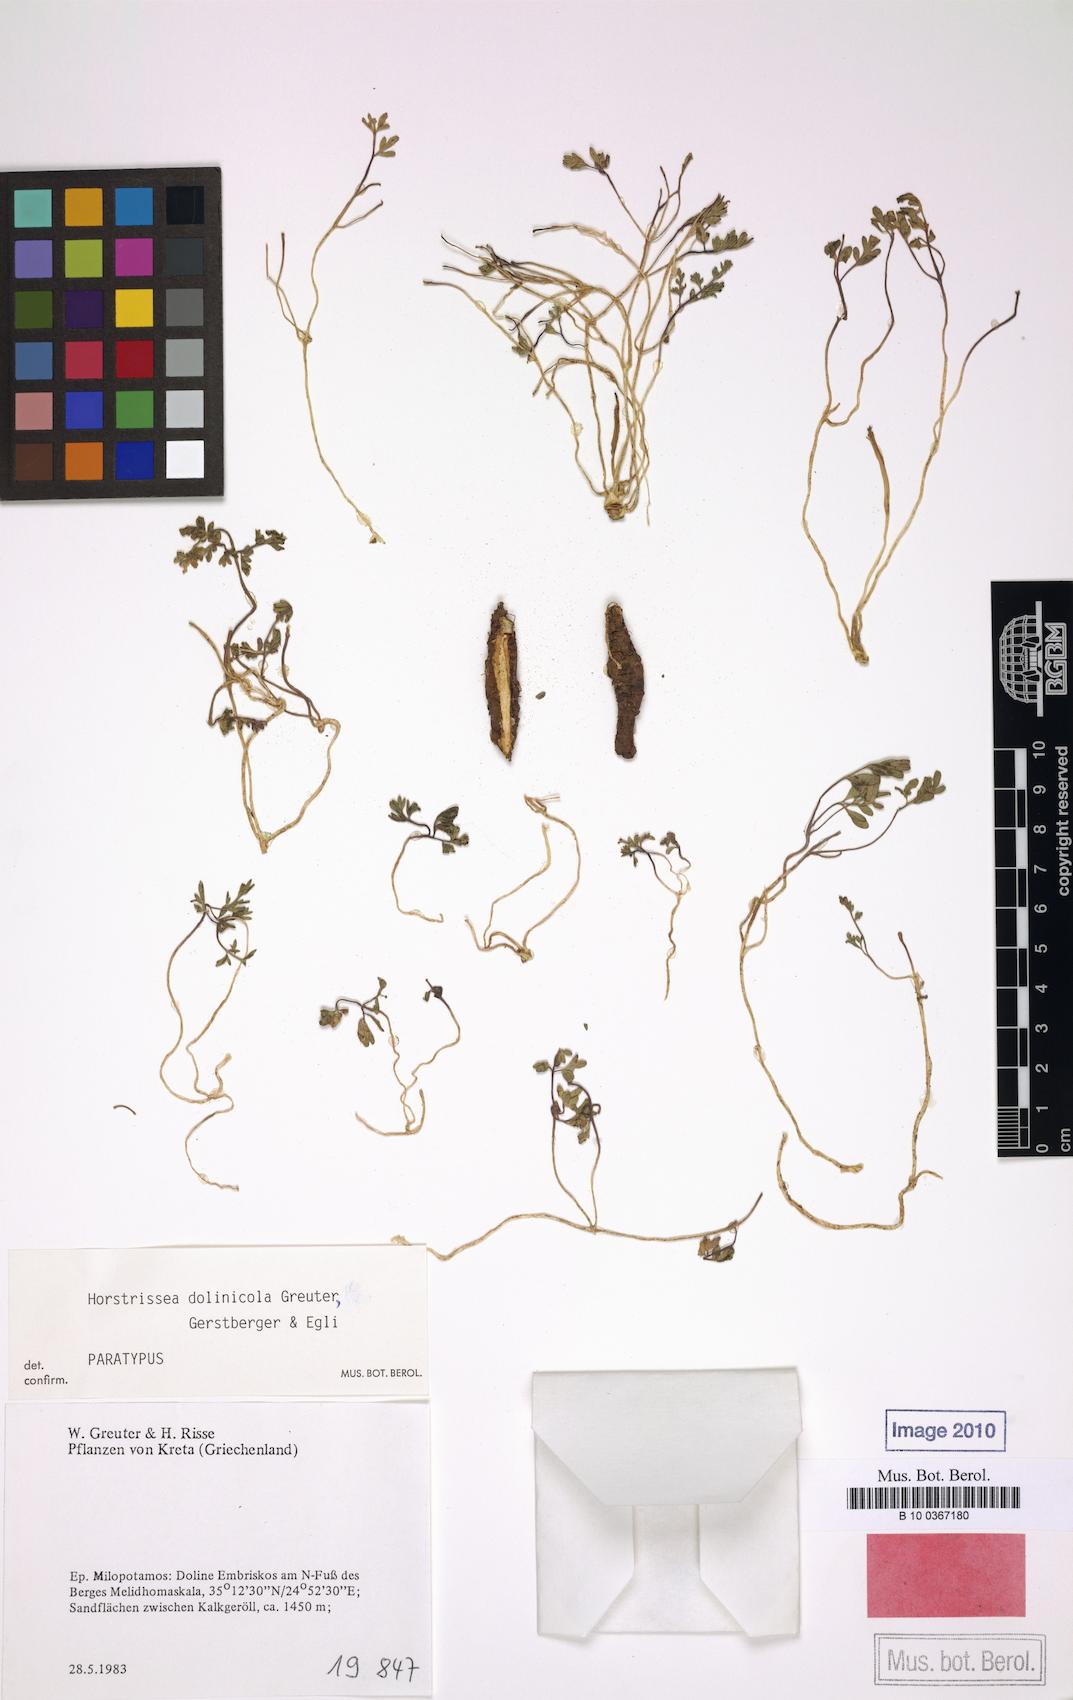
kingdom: Plantae
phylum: Tracheophyta
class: Magnoliopsida
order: Apiales
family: Apiaceae
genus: Horstrissea
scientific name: Horstrissea dolinicola
